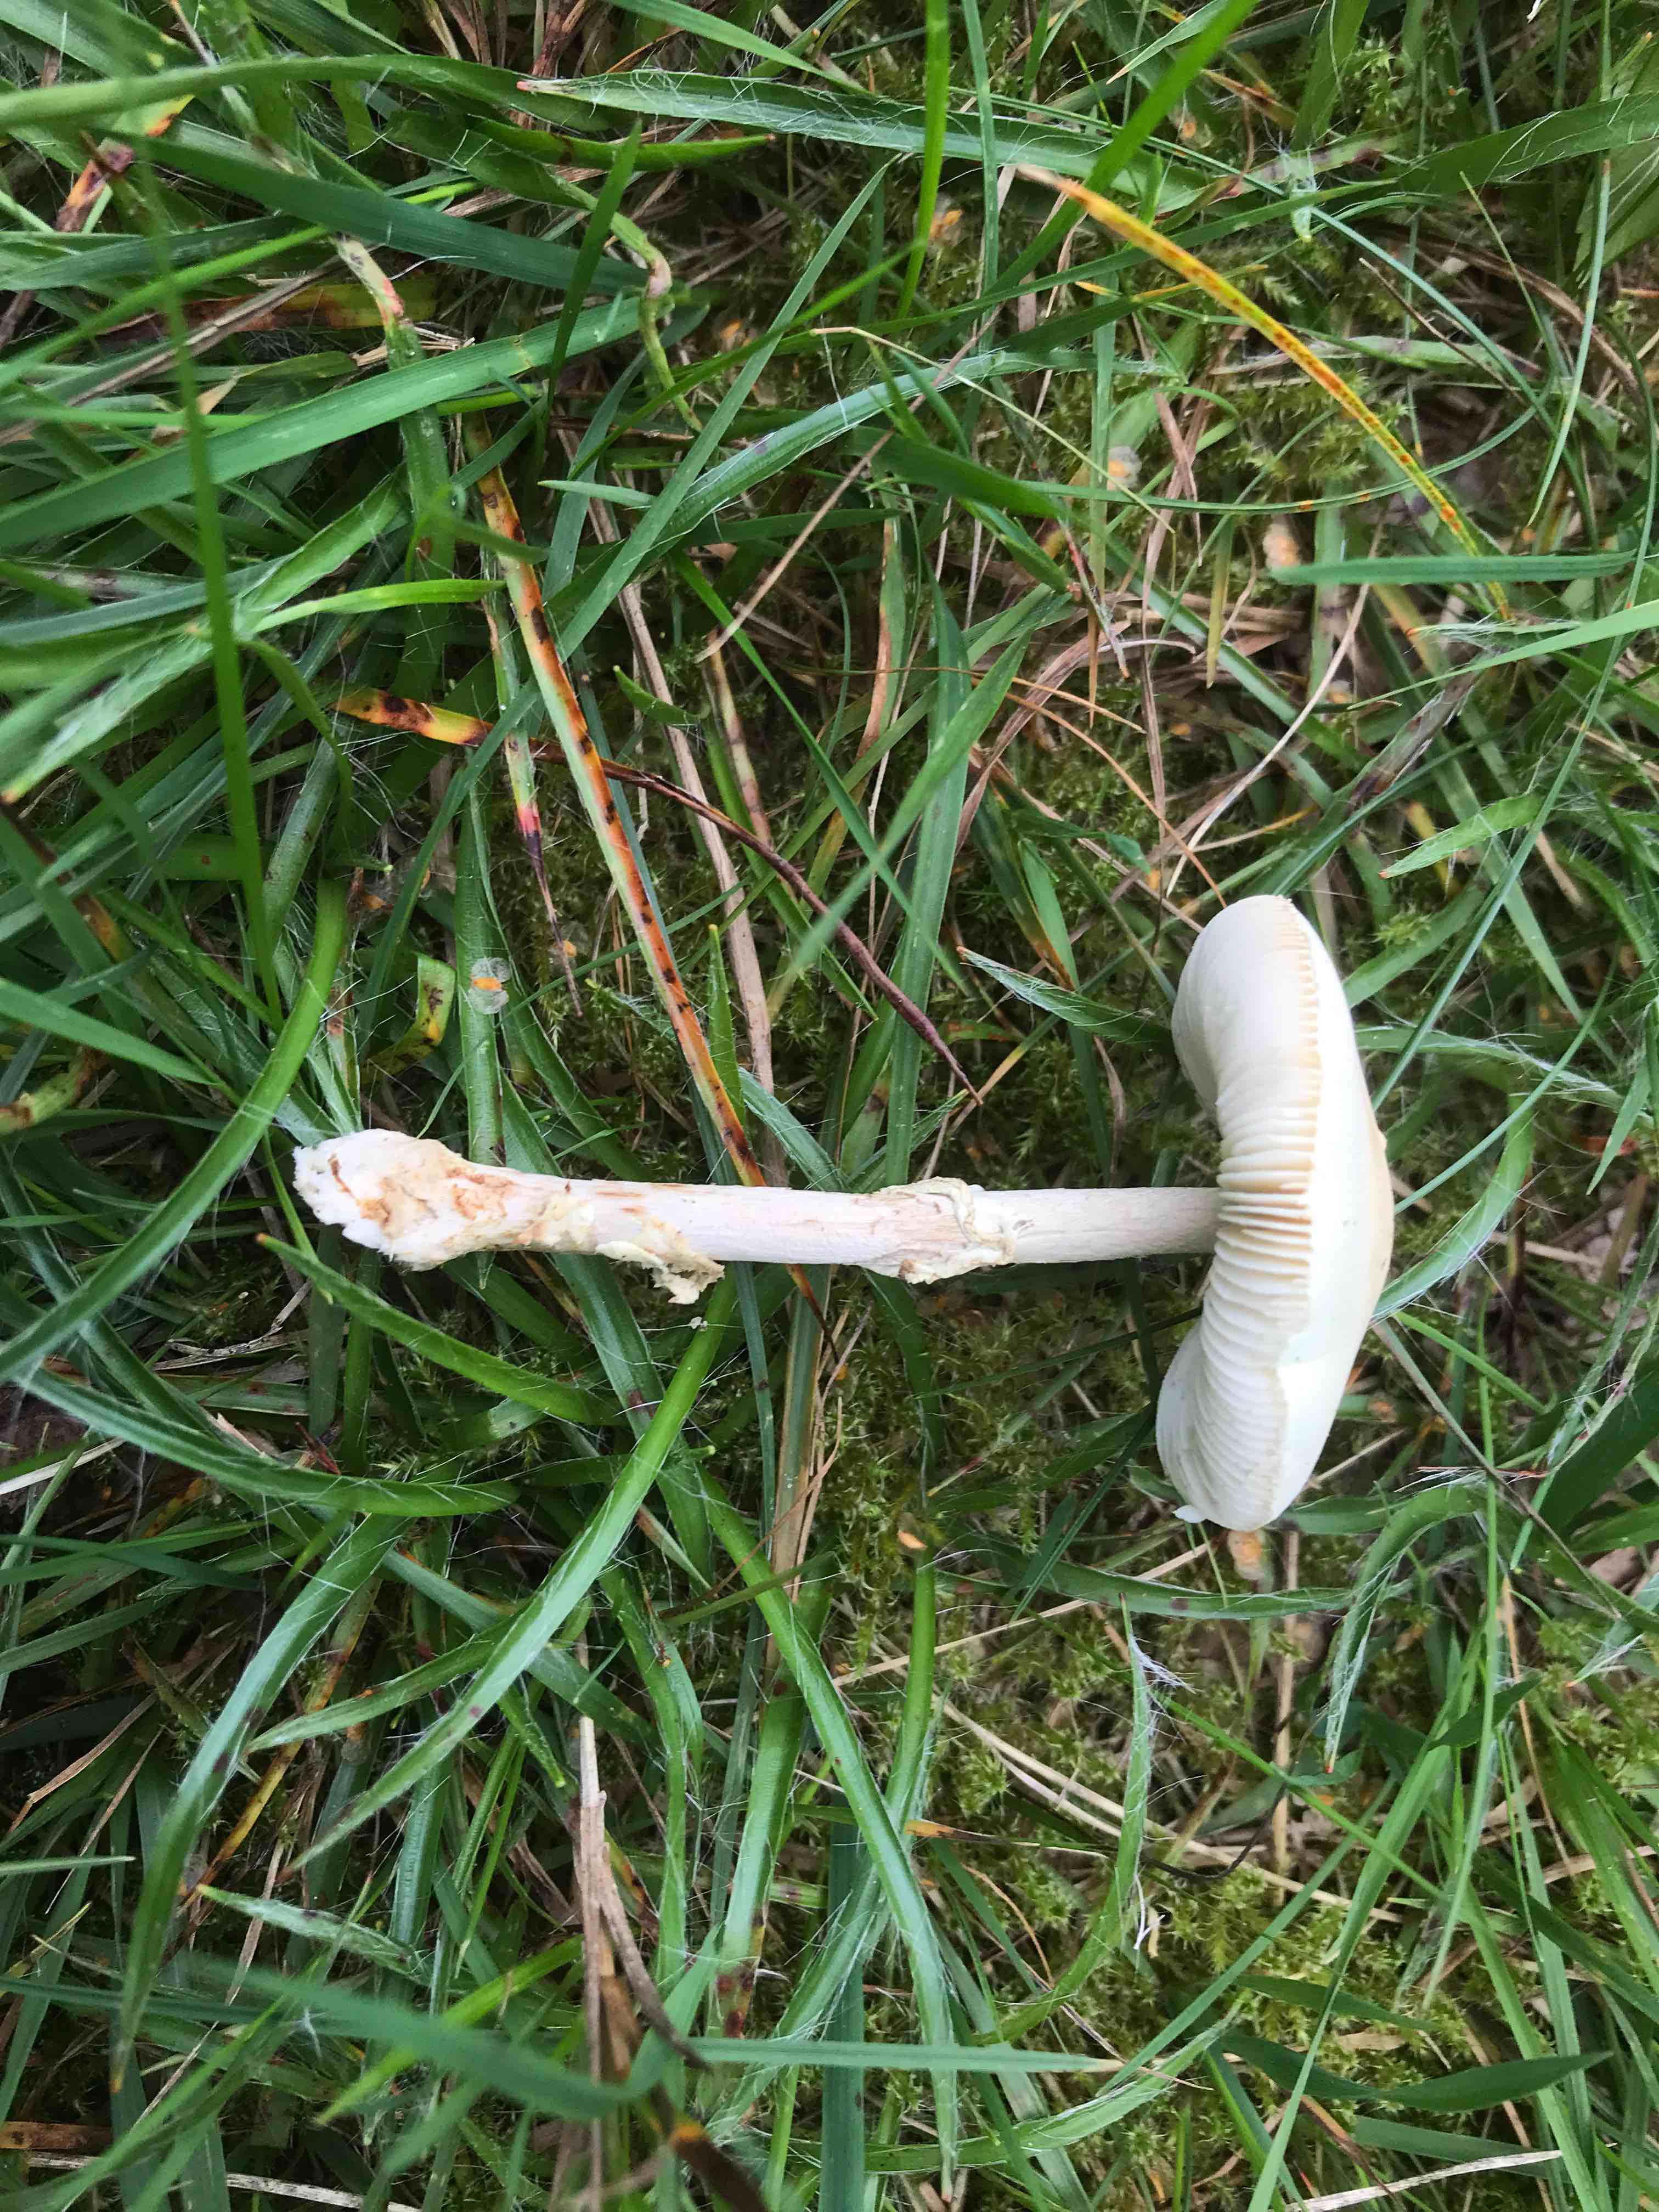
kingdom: Fungi
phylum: Basidiomycota
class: Agaricomycetes
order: Agaricales
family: Amanitaceae
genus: Amanita
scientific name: Amanita rubescens
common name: rødmende fluesvamp
